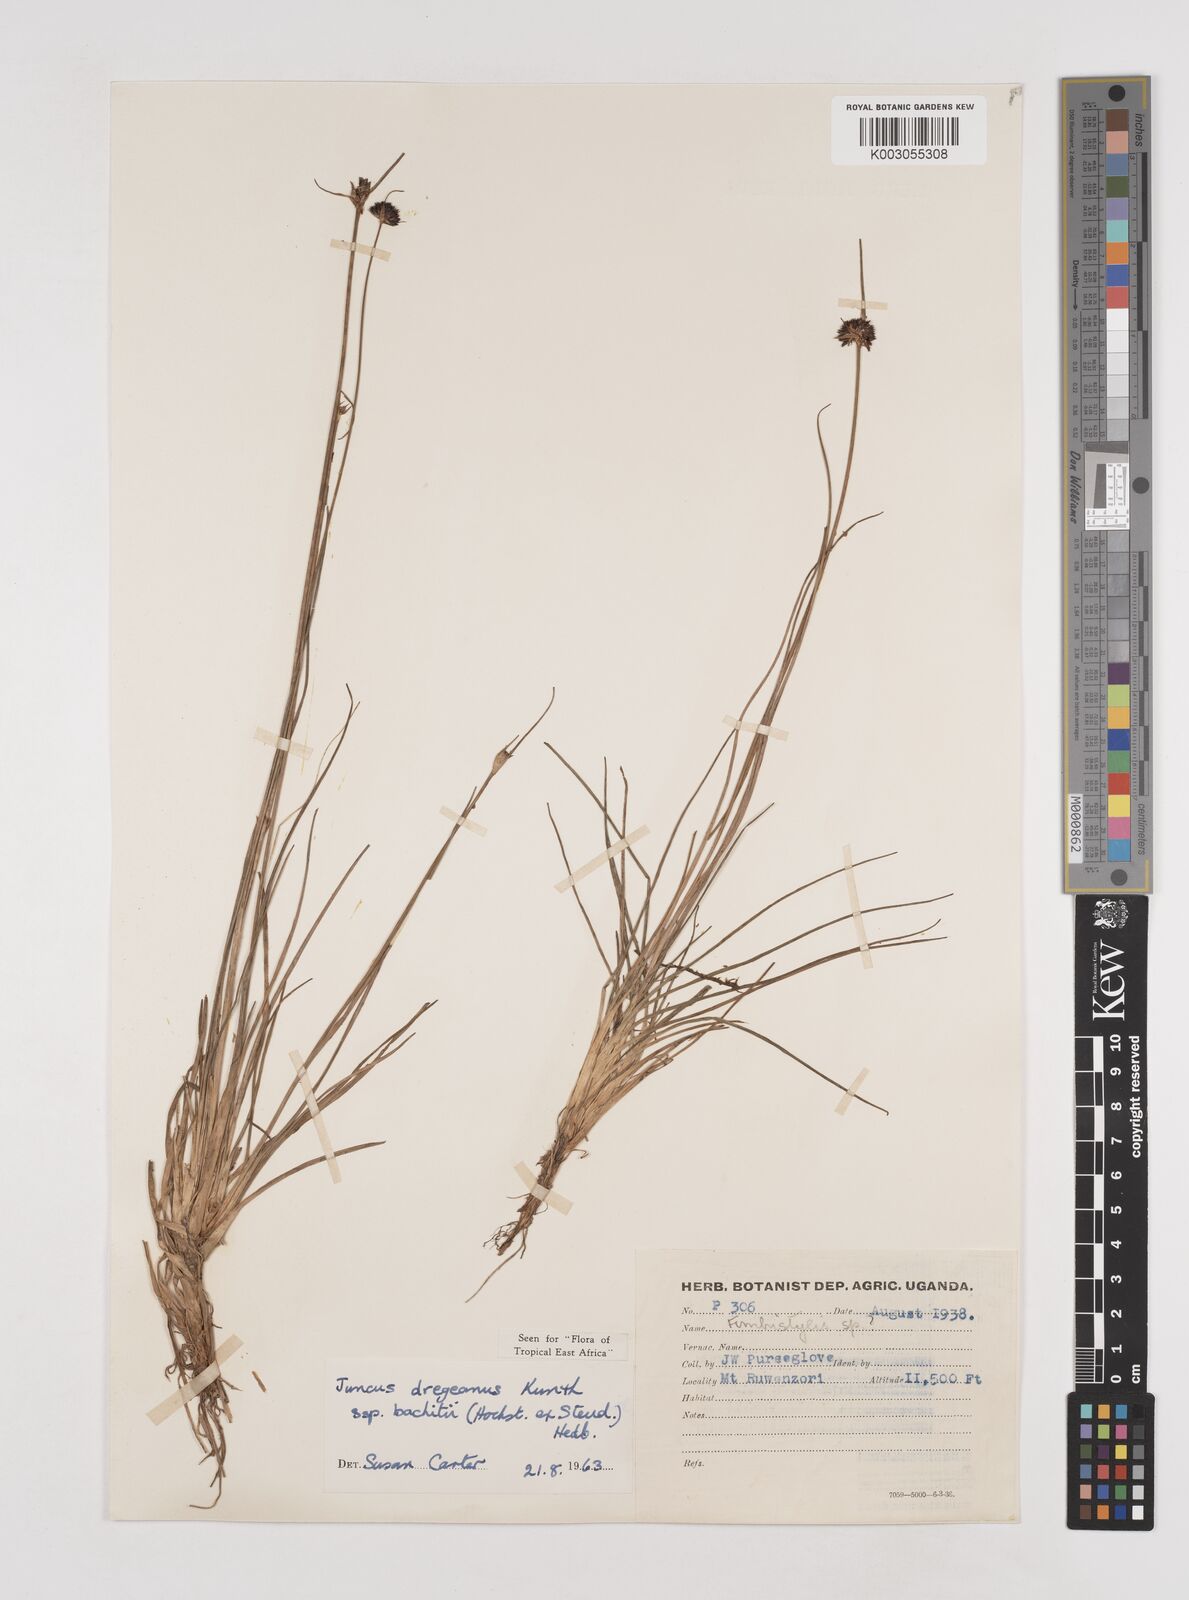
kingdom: Plantae
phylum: Tracheophyta
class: Liliopsida
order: Poales
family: Juncaceae
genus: Juncus
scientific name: Juncus dregeanus
